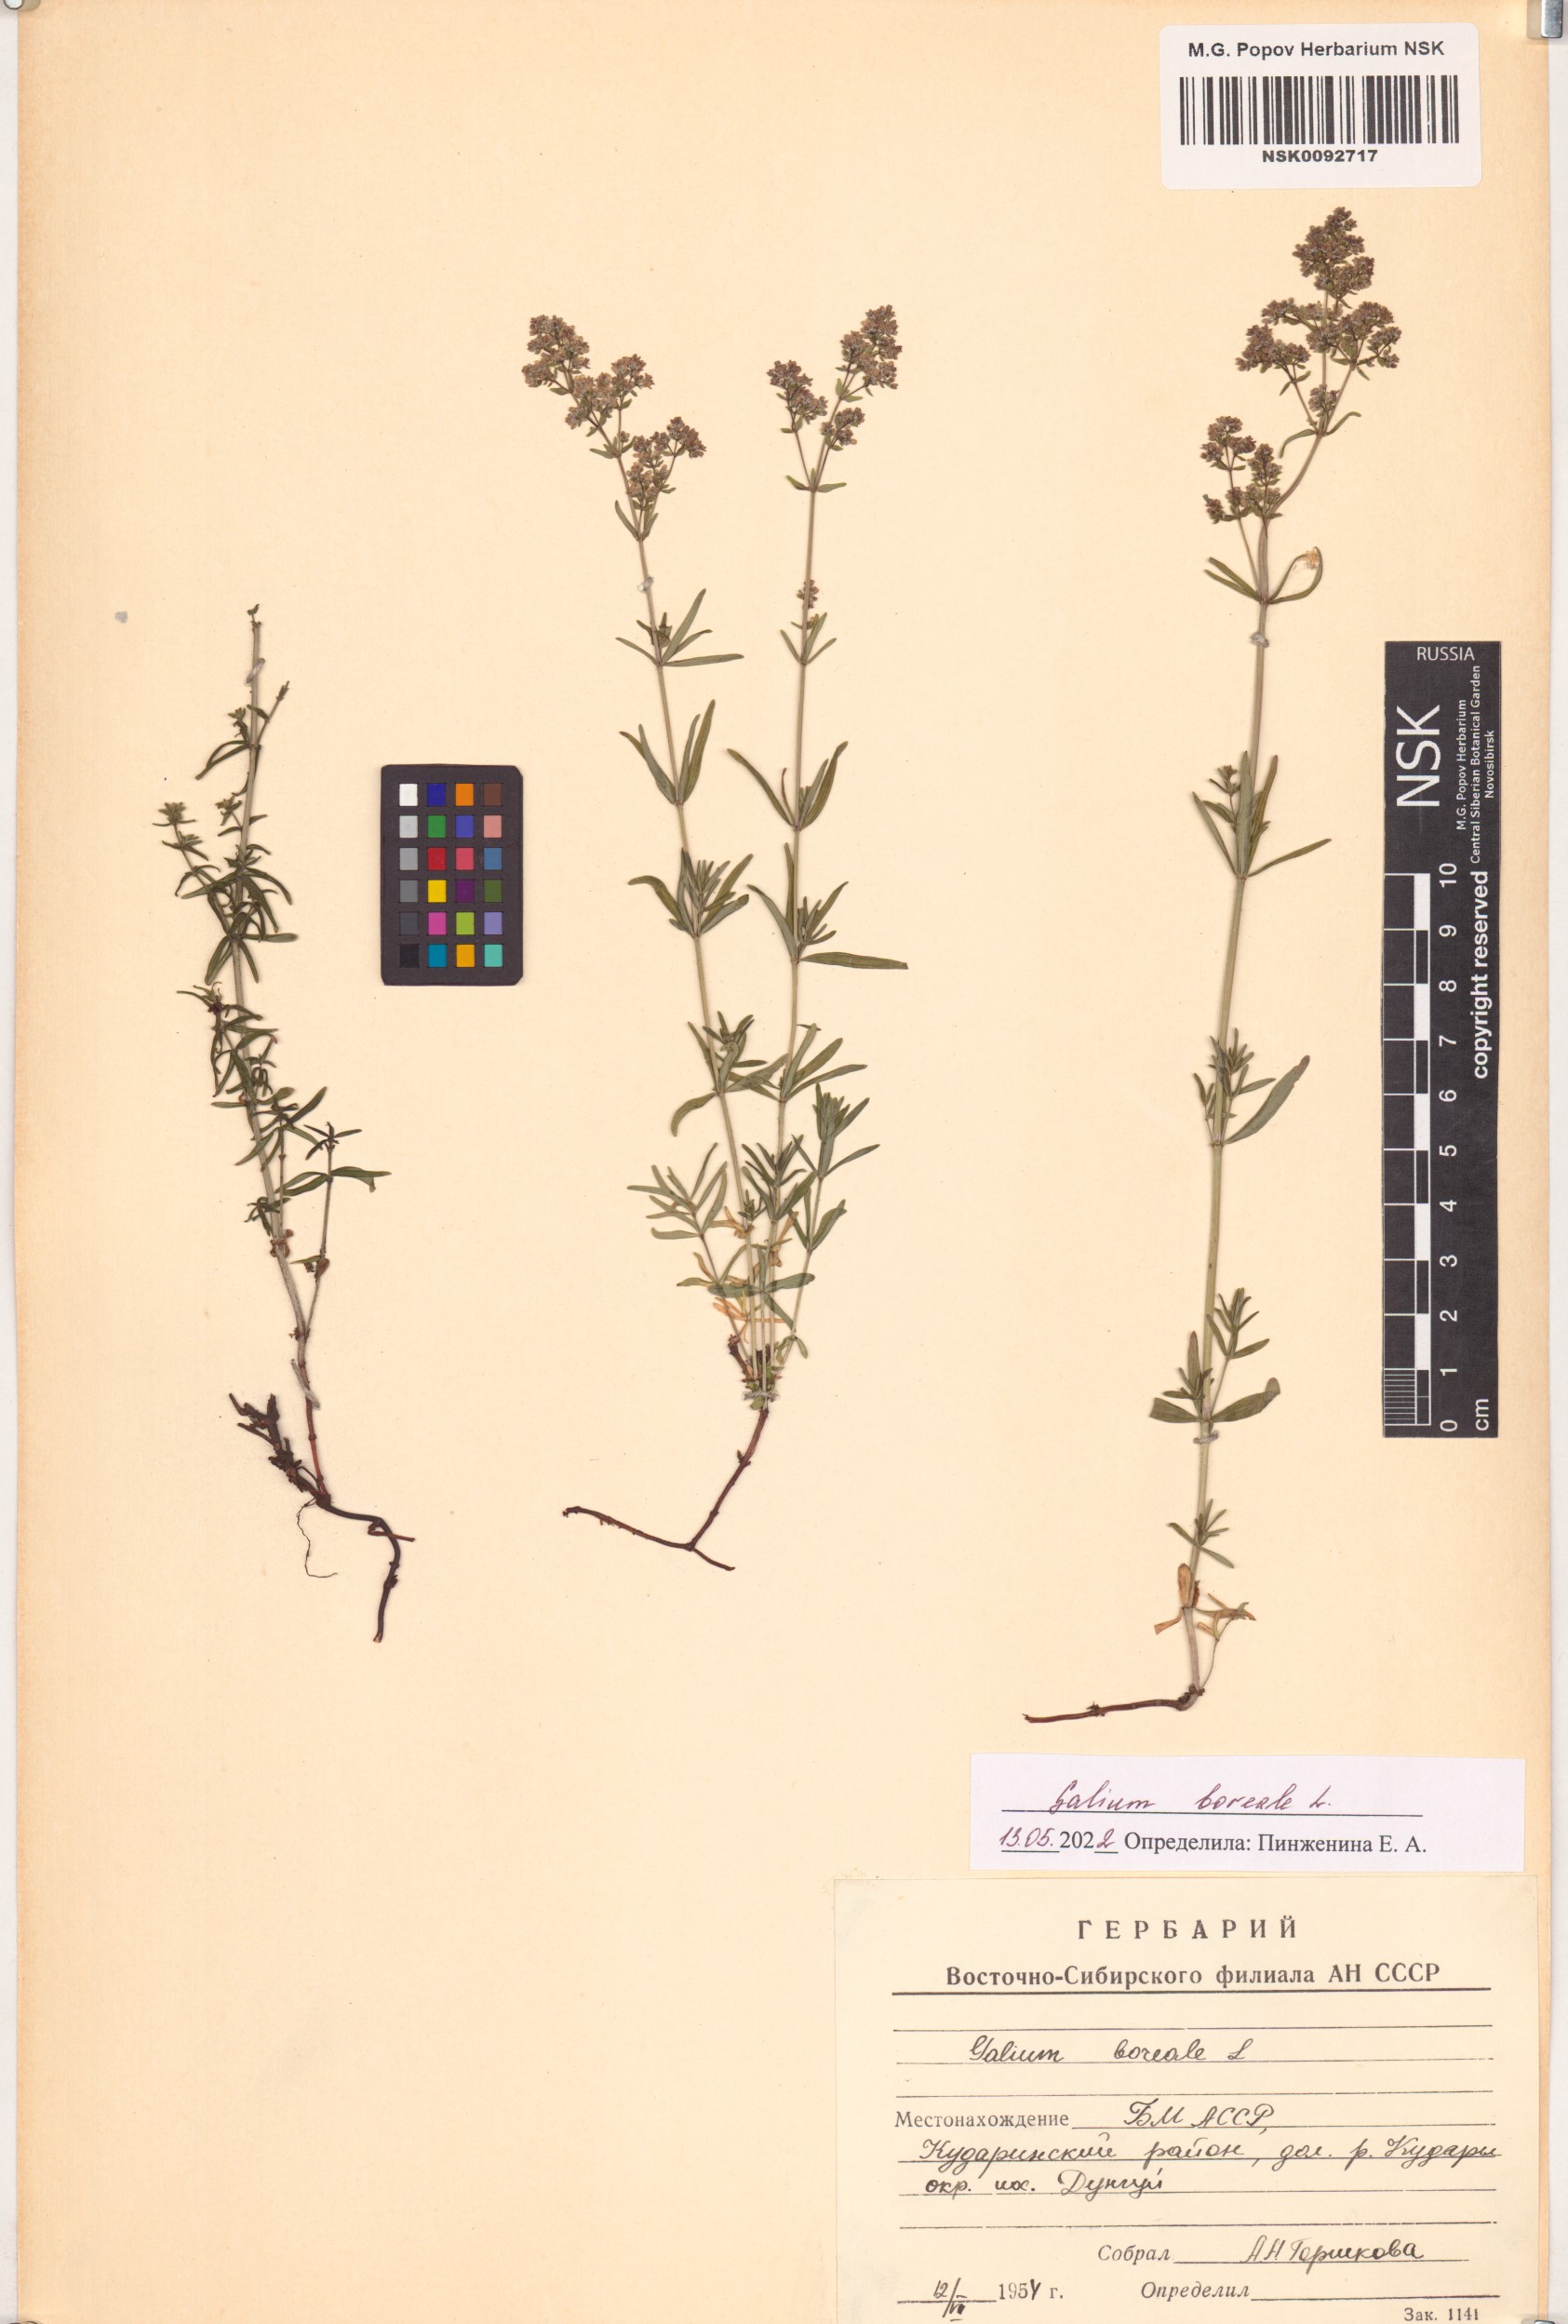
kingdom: Plantae
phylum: Tracheophyta
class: Magnoliopsida
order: Gentianales
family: Rubiaceae
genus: Galium
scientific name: Galium boreale
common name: Northern bedstraw
